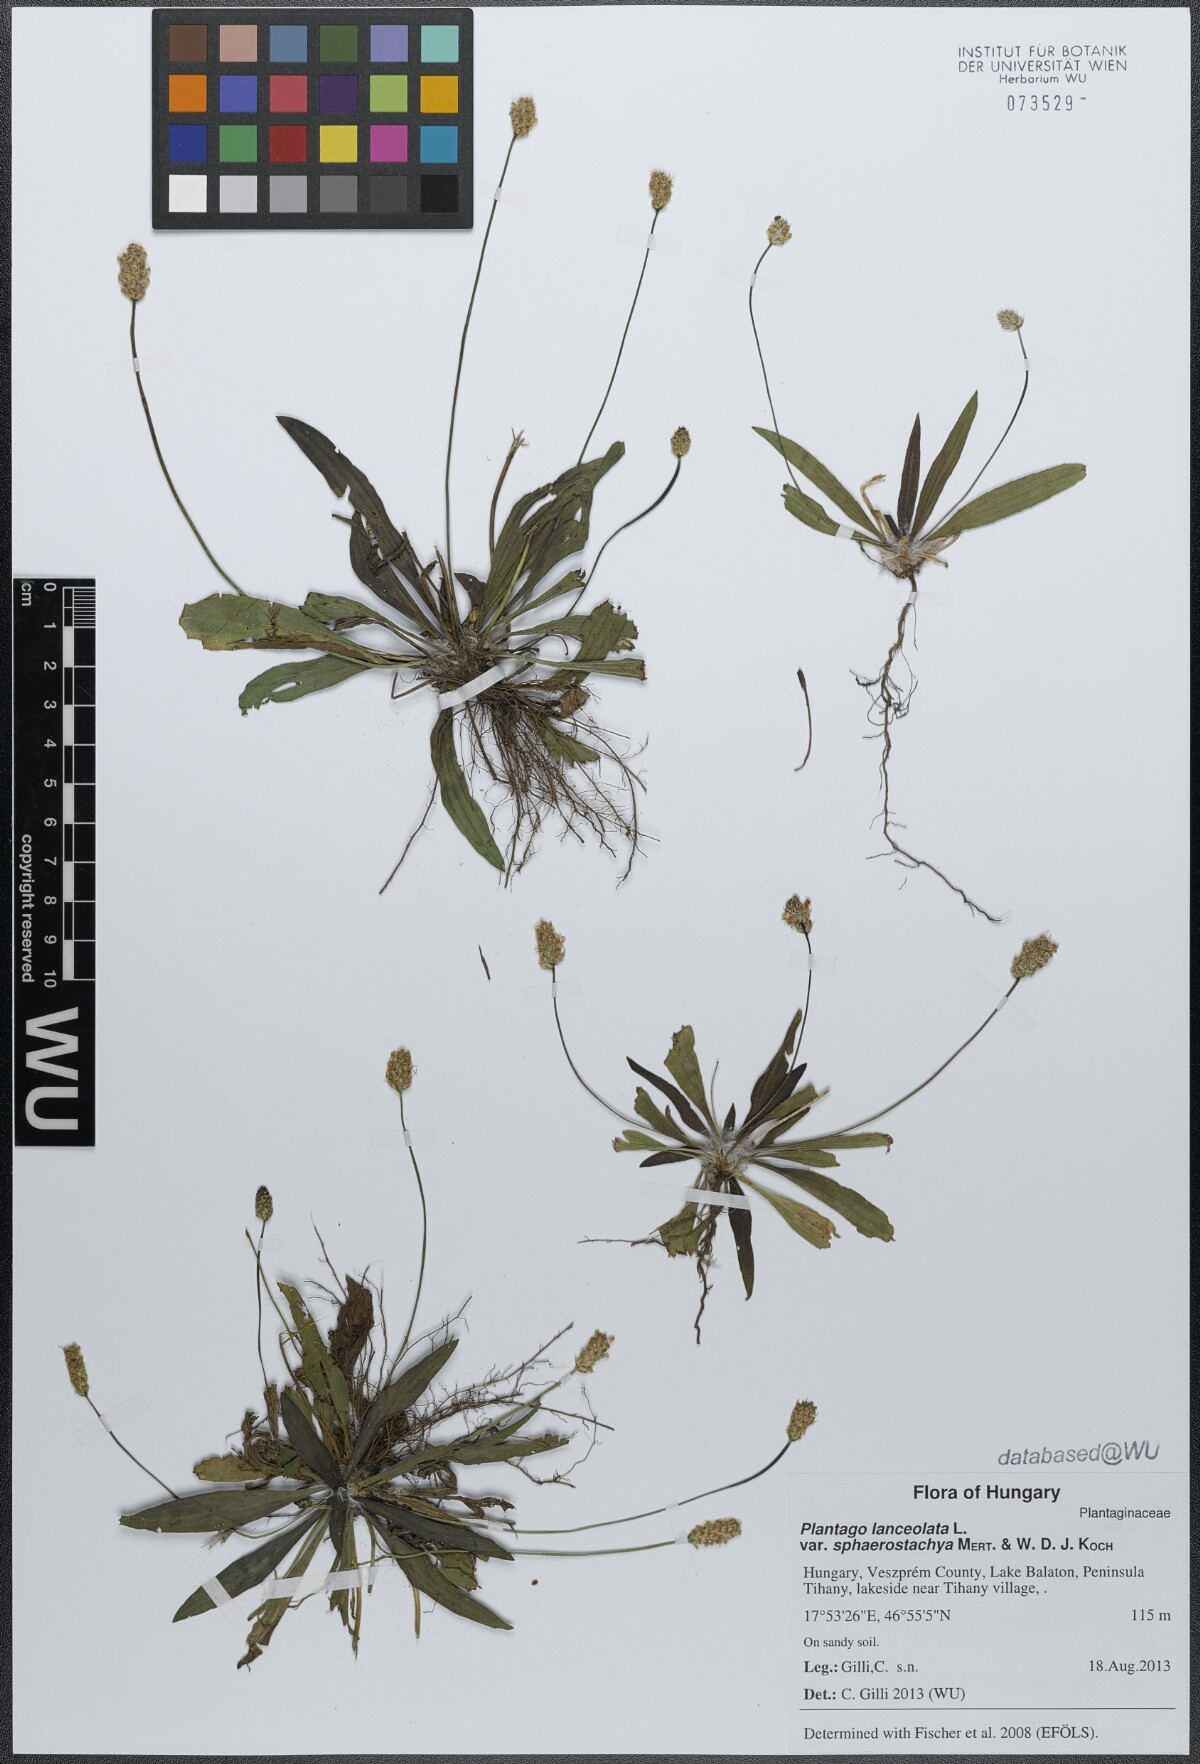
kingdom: Plantae
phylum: Tracheophyta
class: Magnoliopsida
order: Lamiales
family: Plantaginaceae
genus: Plantago
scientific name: Plantago lanceolata
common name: Ribwort plantain
